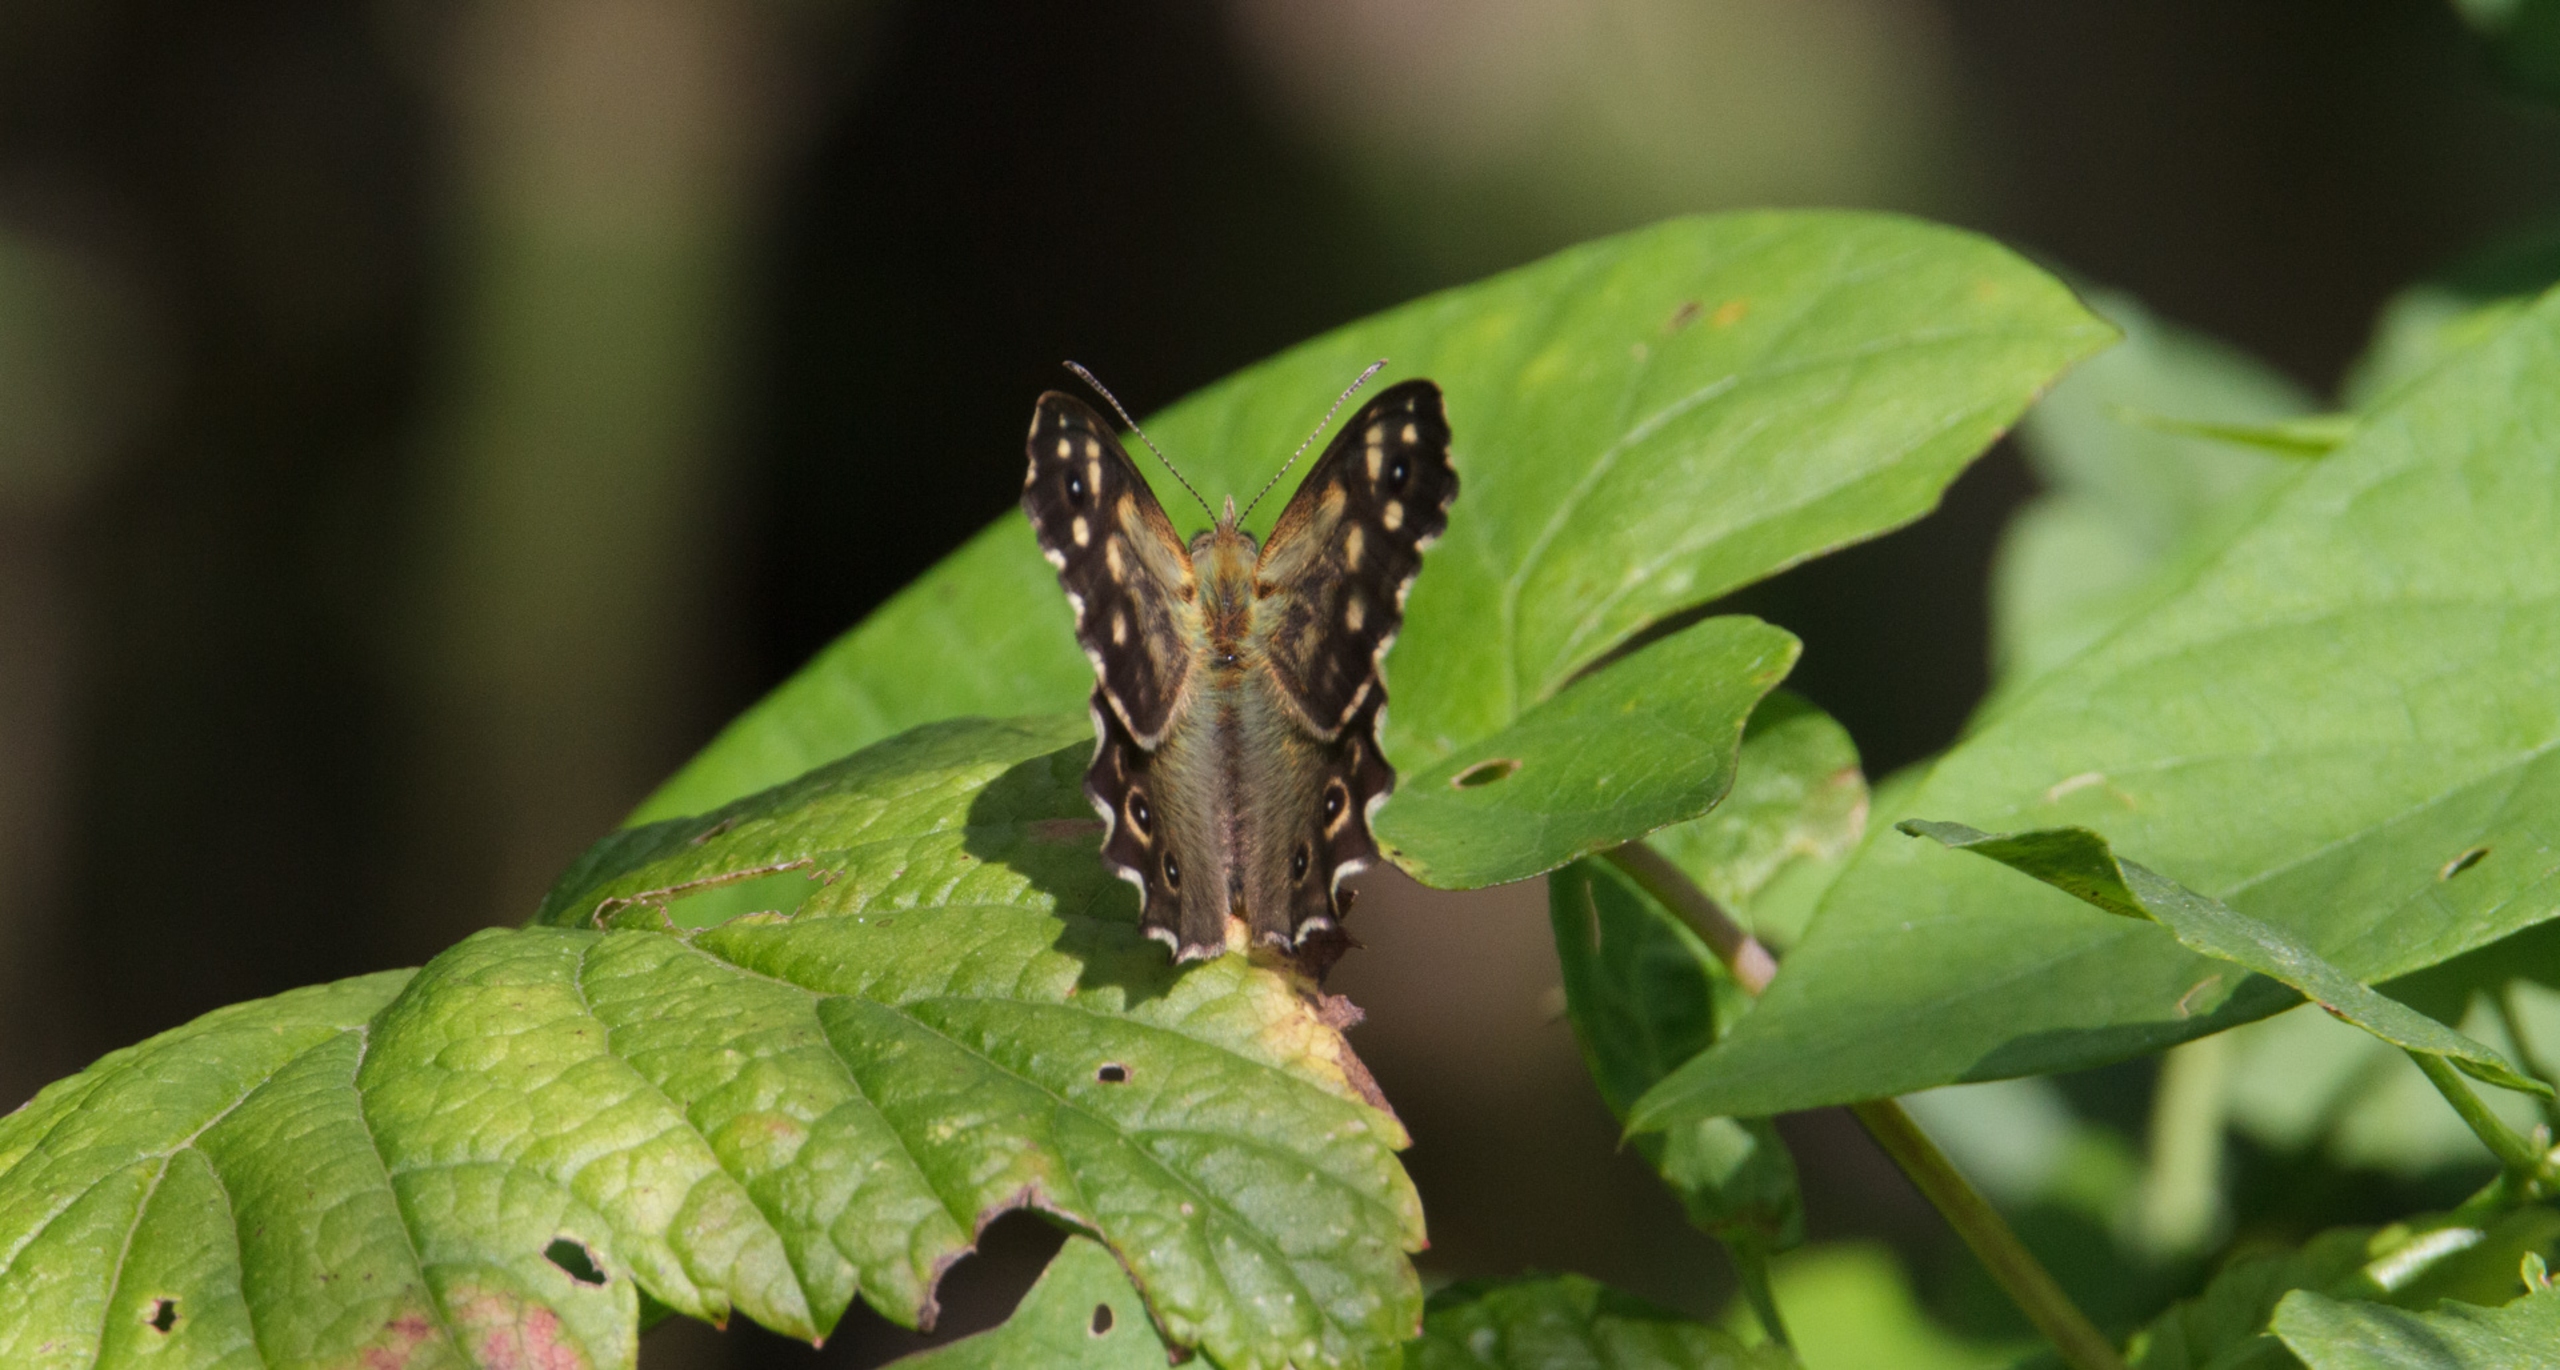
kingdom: Animalia
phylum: Arthropoda
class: Insecta
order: Lepidoptera
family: Nymphalidae
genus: Pararge
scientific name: Pararge aegeria
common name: Skovrandøje
